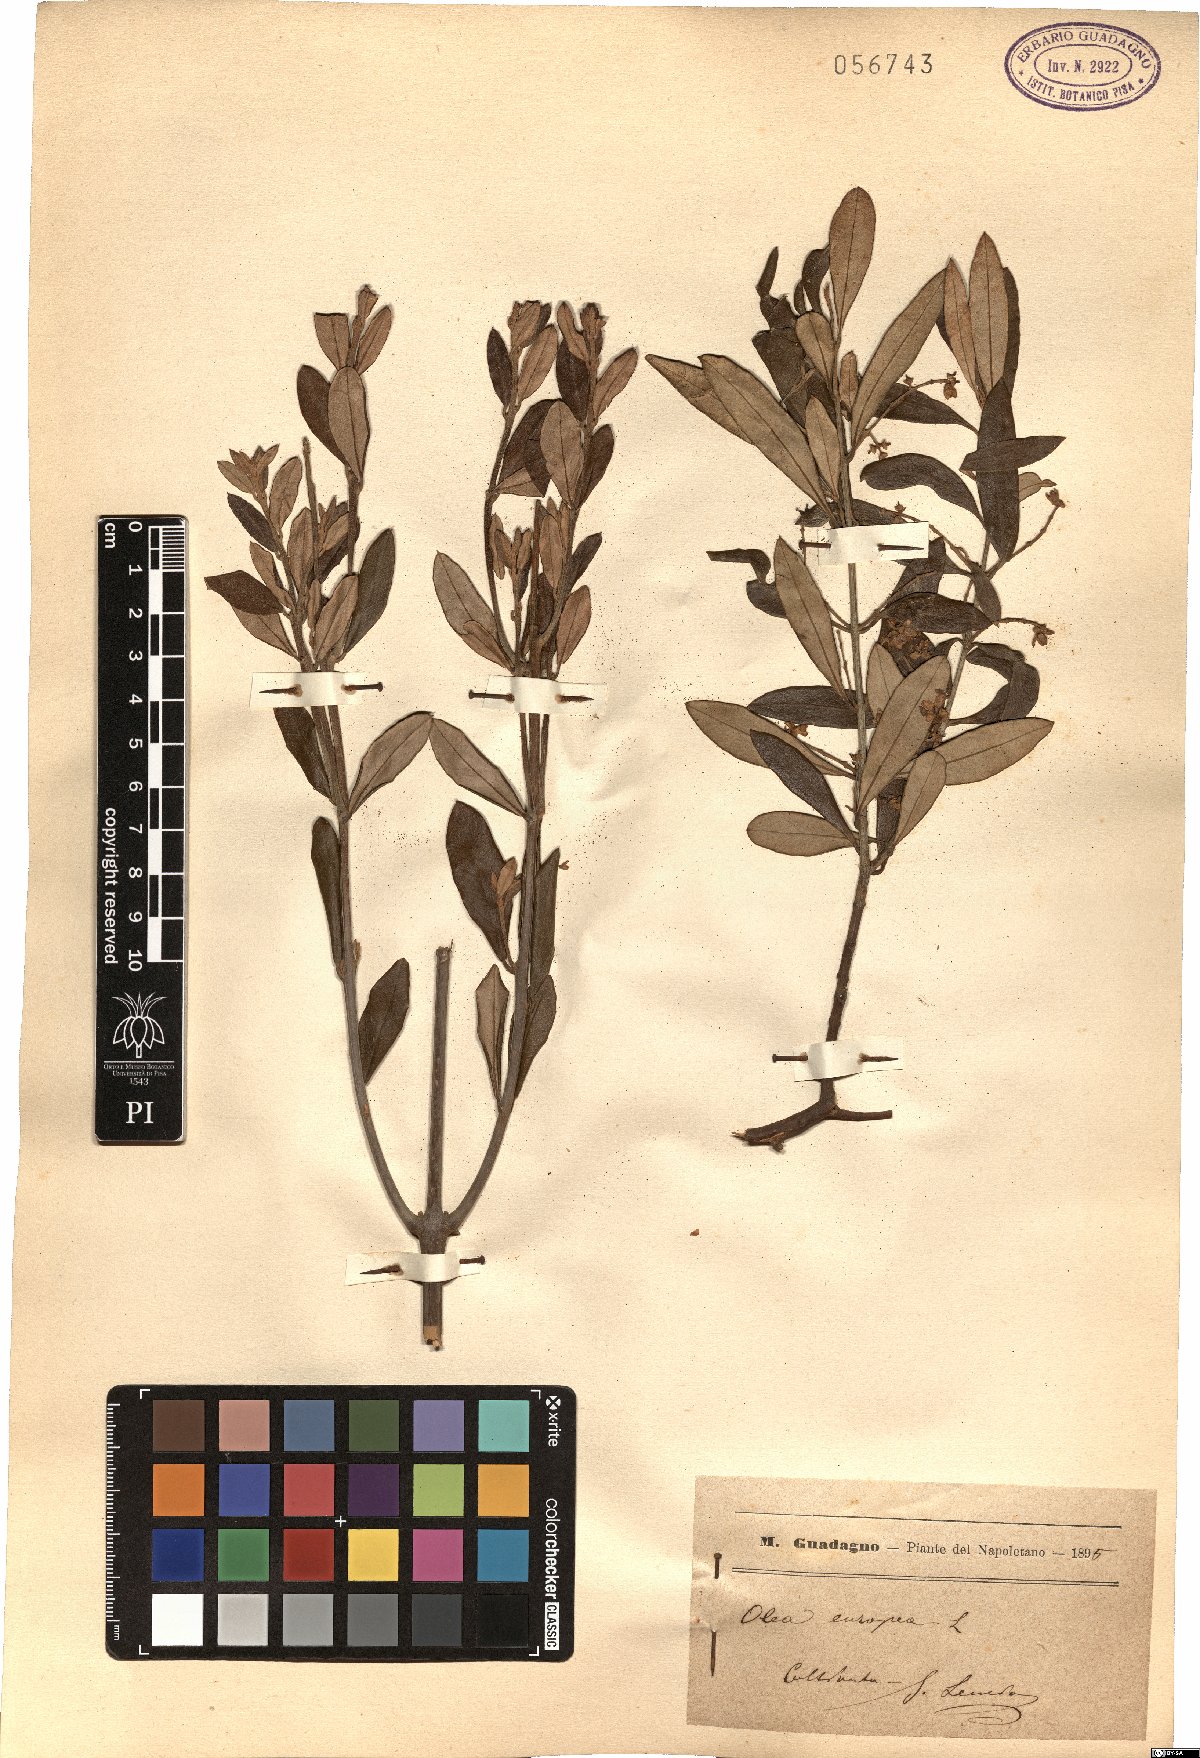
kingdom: Plantae
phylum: Tracheophyta
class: Magnoliopsida
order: Lamiales
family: Oleaceae
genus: Olea
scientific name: Olea europaea
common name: Olive
